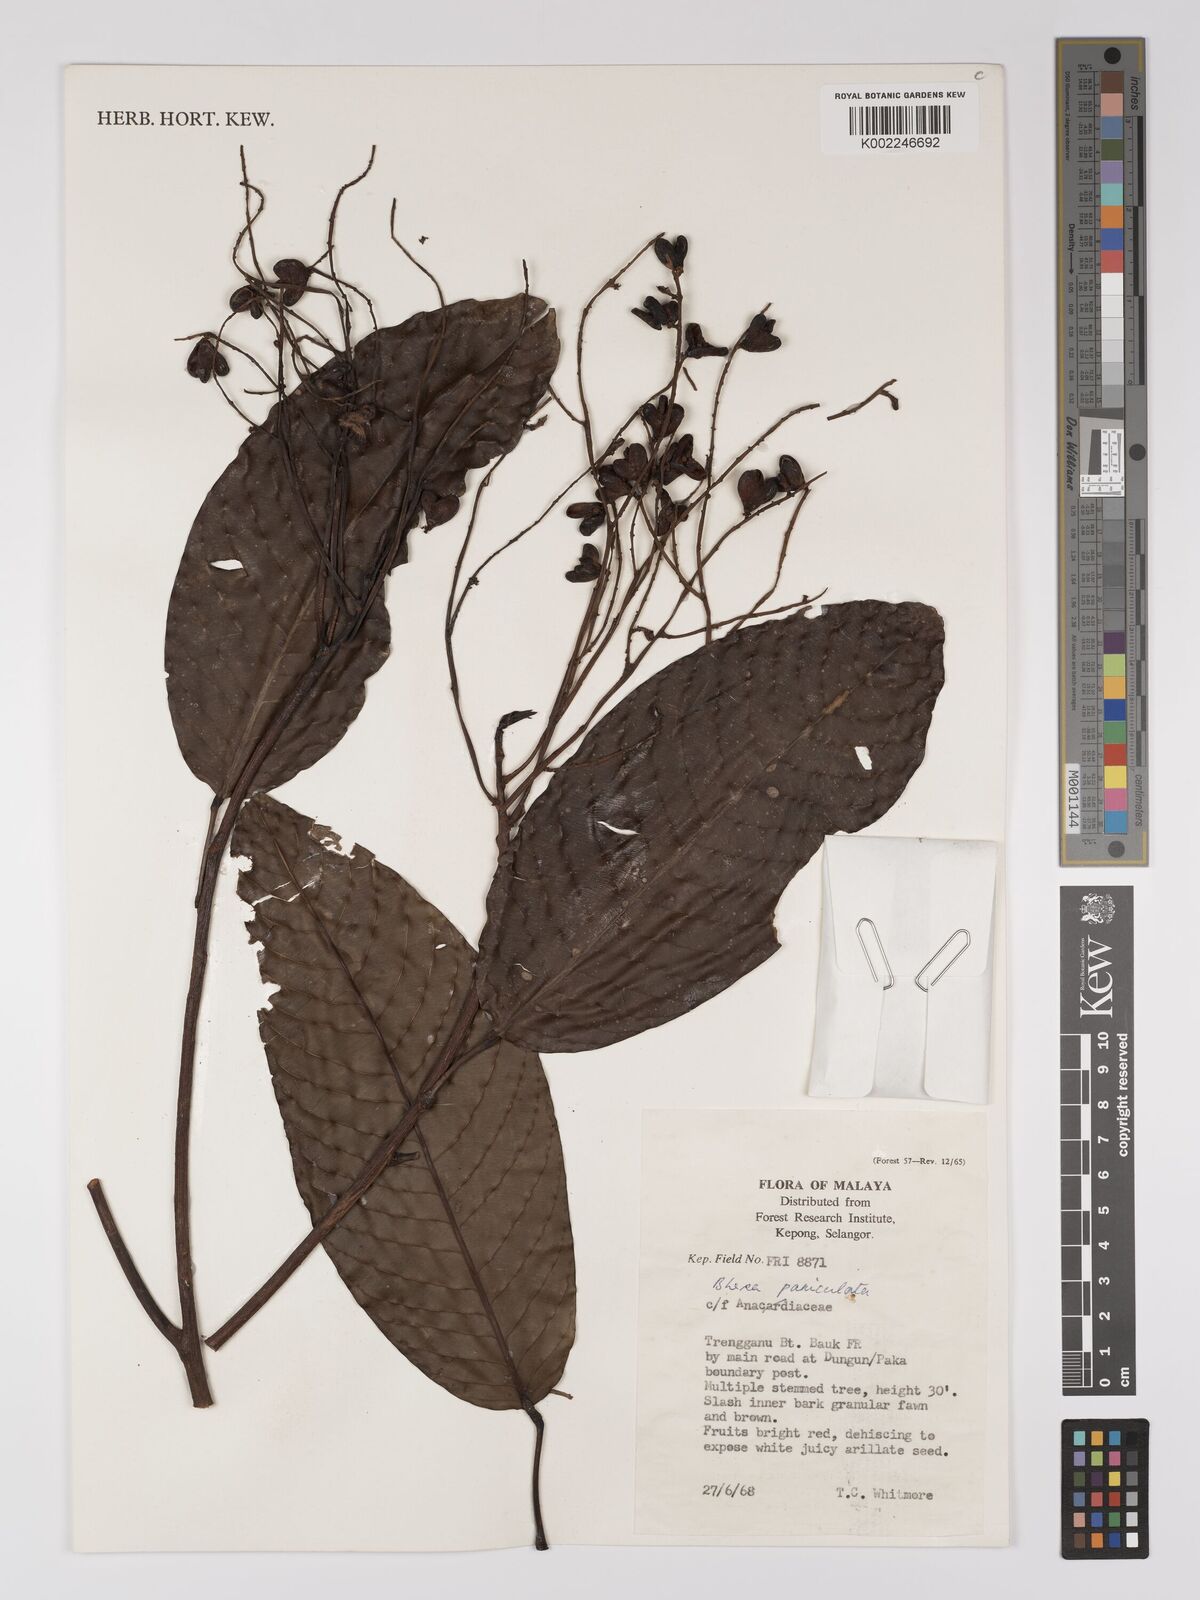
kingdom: Plantae
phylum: Tracheophyta
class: Magnoliopsida
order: Malpighiales
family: Centroplacaceae
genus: Bhesa
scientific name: Bhesa paniculata
